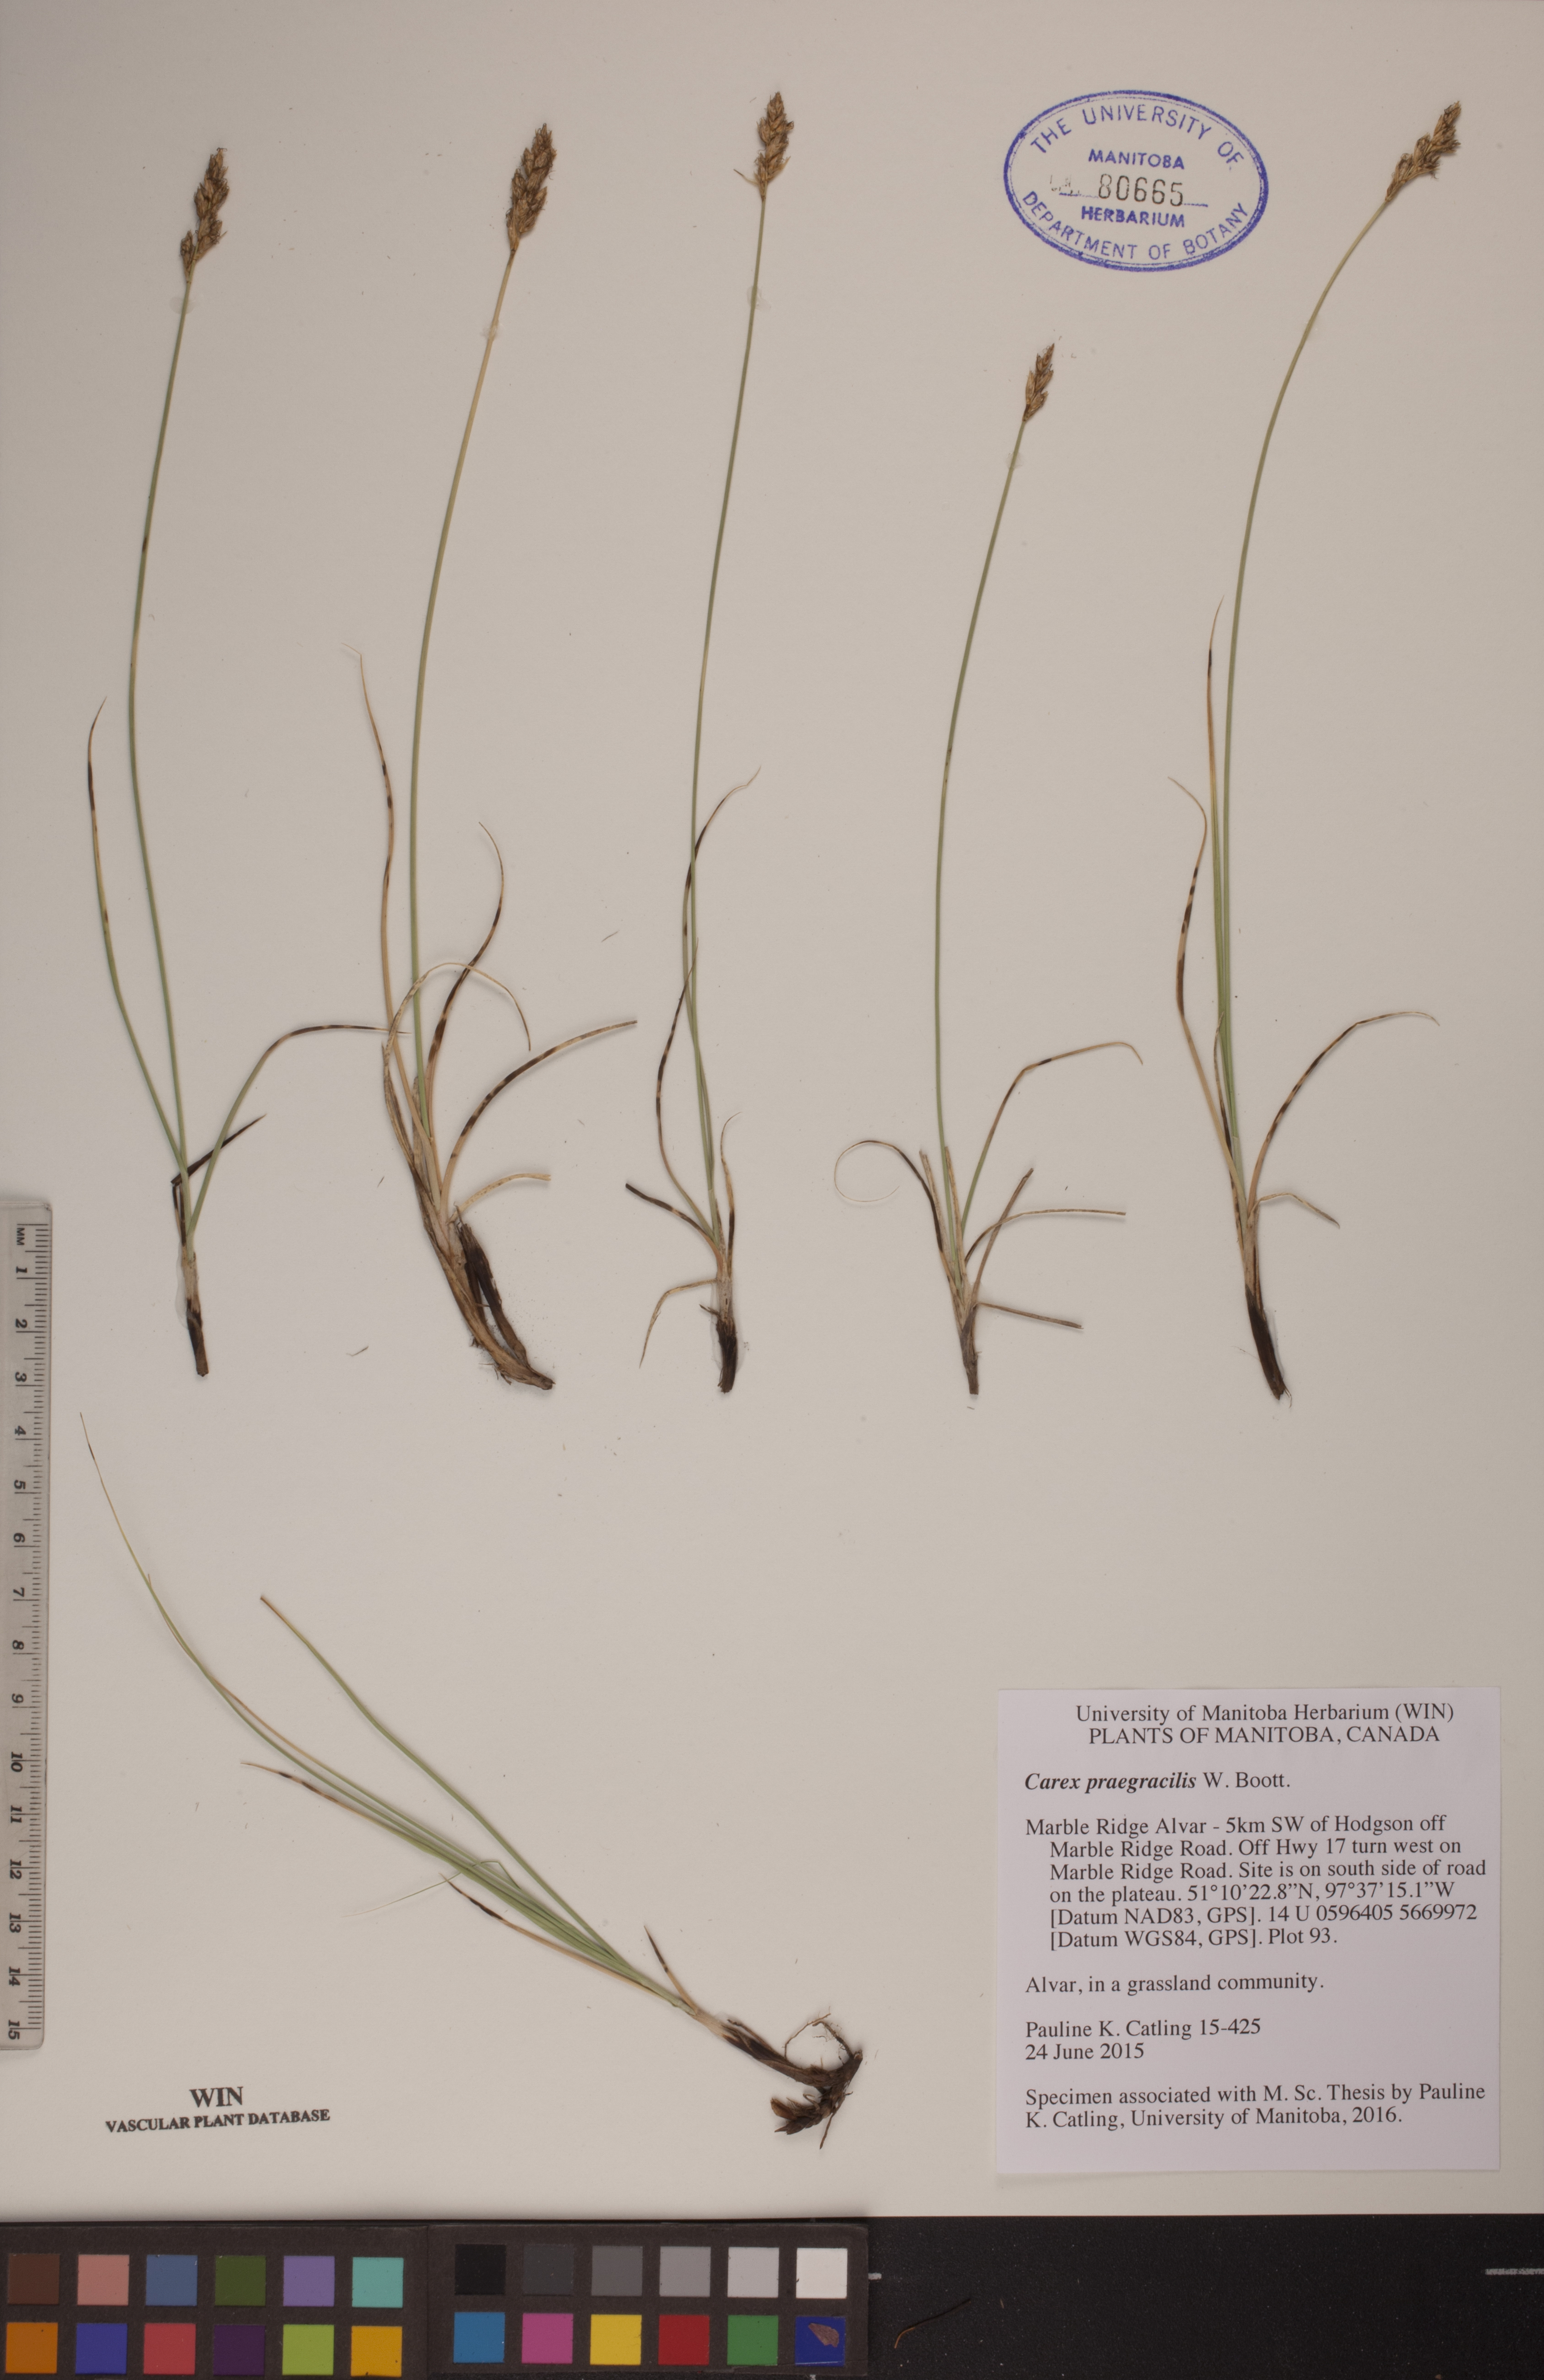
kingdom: Plantae
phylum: Tracheophyta
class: Liliopsida
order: Poales
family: Cyperaceae
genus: Carex
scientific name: Carex praegracilis
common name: Black creeper sedge
